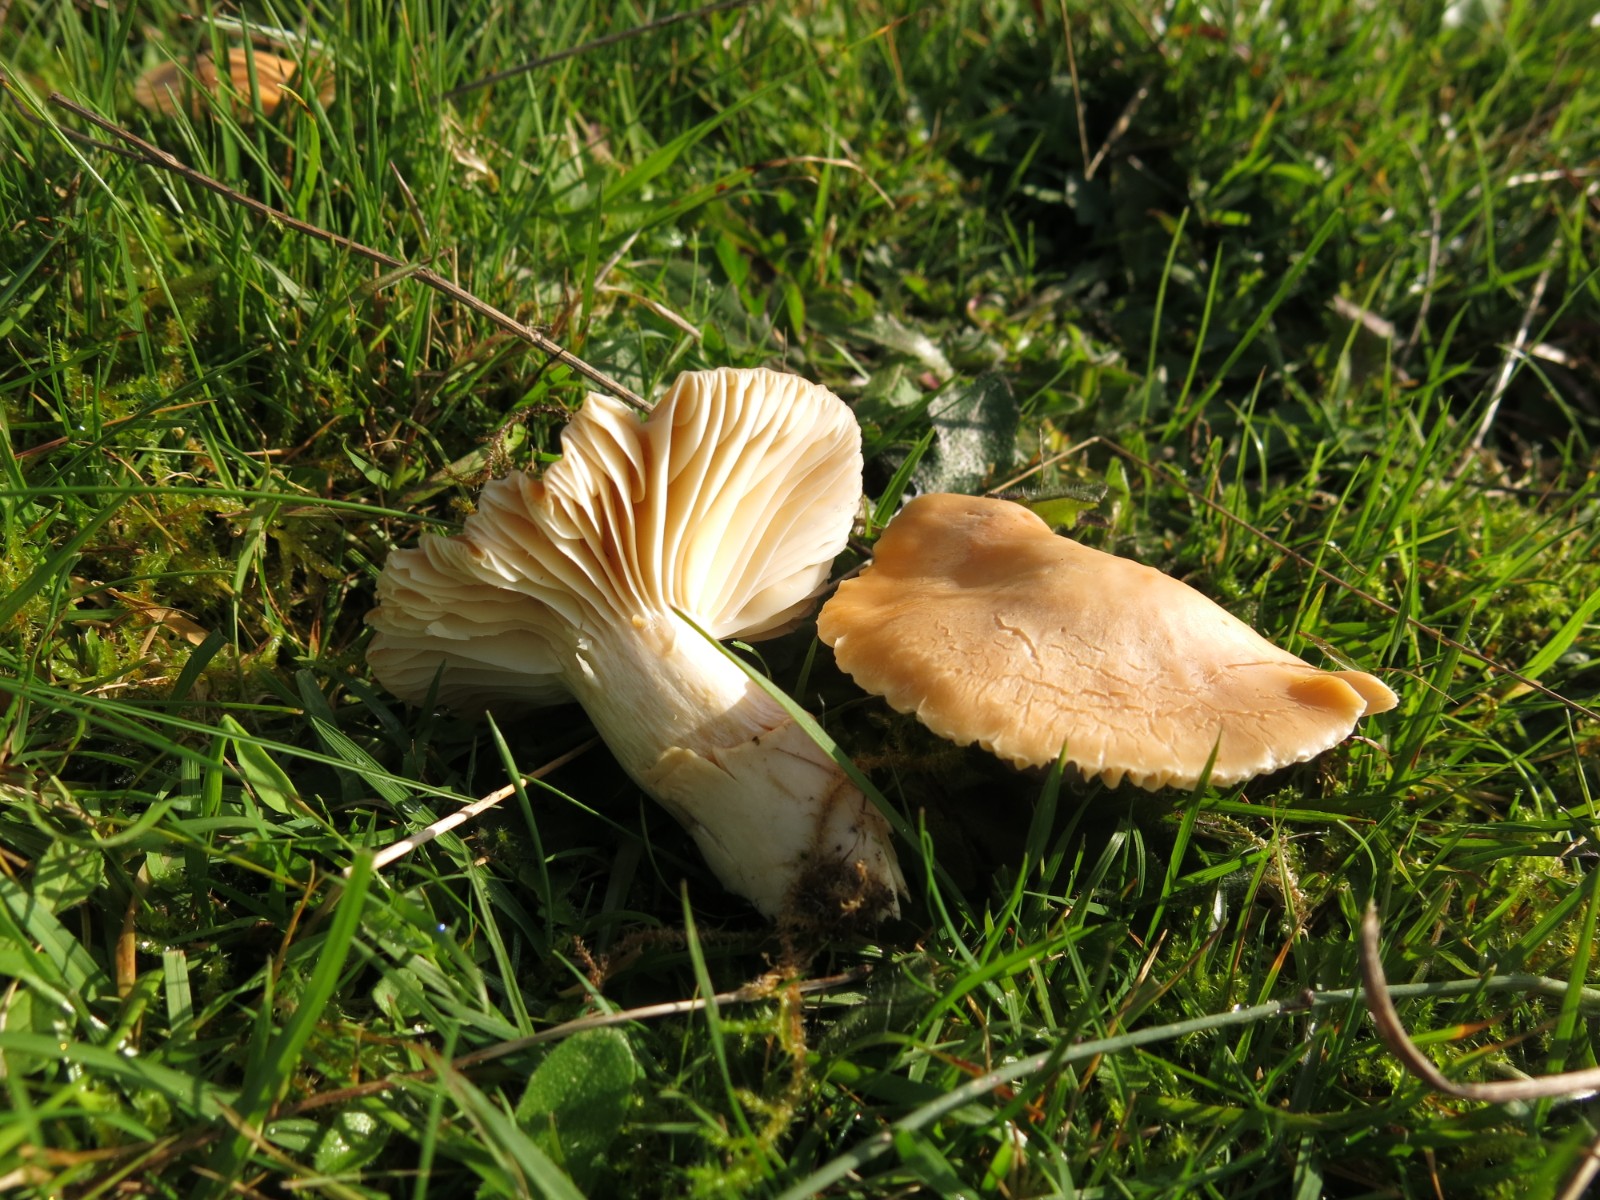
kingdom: Fungi
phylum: Basidiomycota
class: Agaricomycetes
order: Agaricales
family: Hygrophoraceae
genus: Cuphophyllus
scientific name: Cuphophyllus pratensis
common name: eng-vokshat
